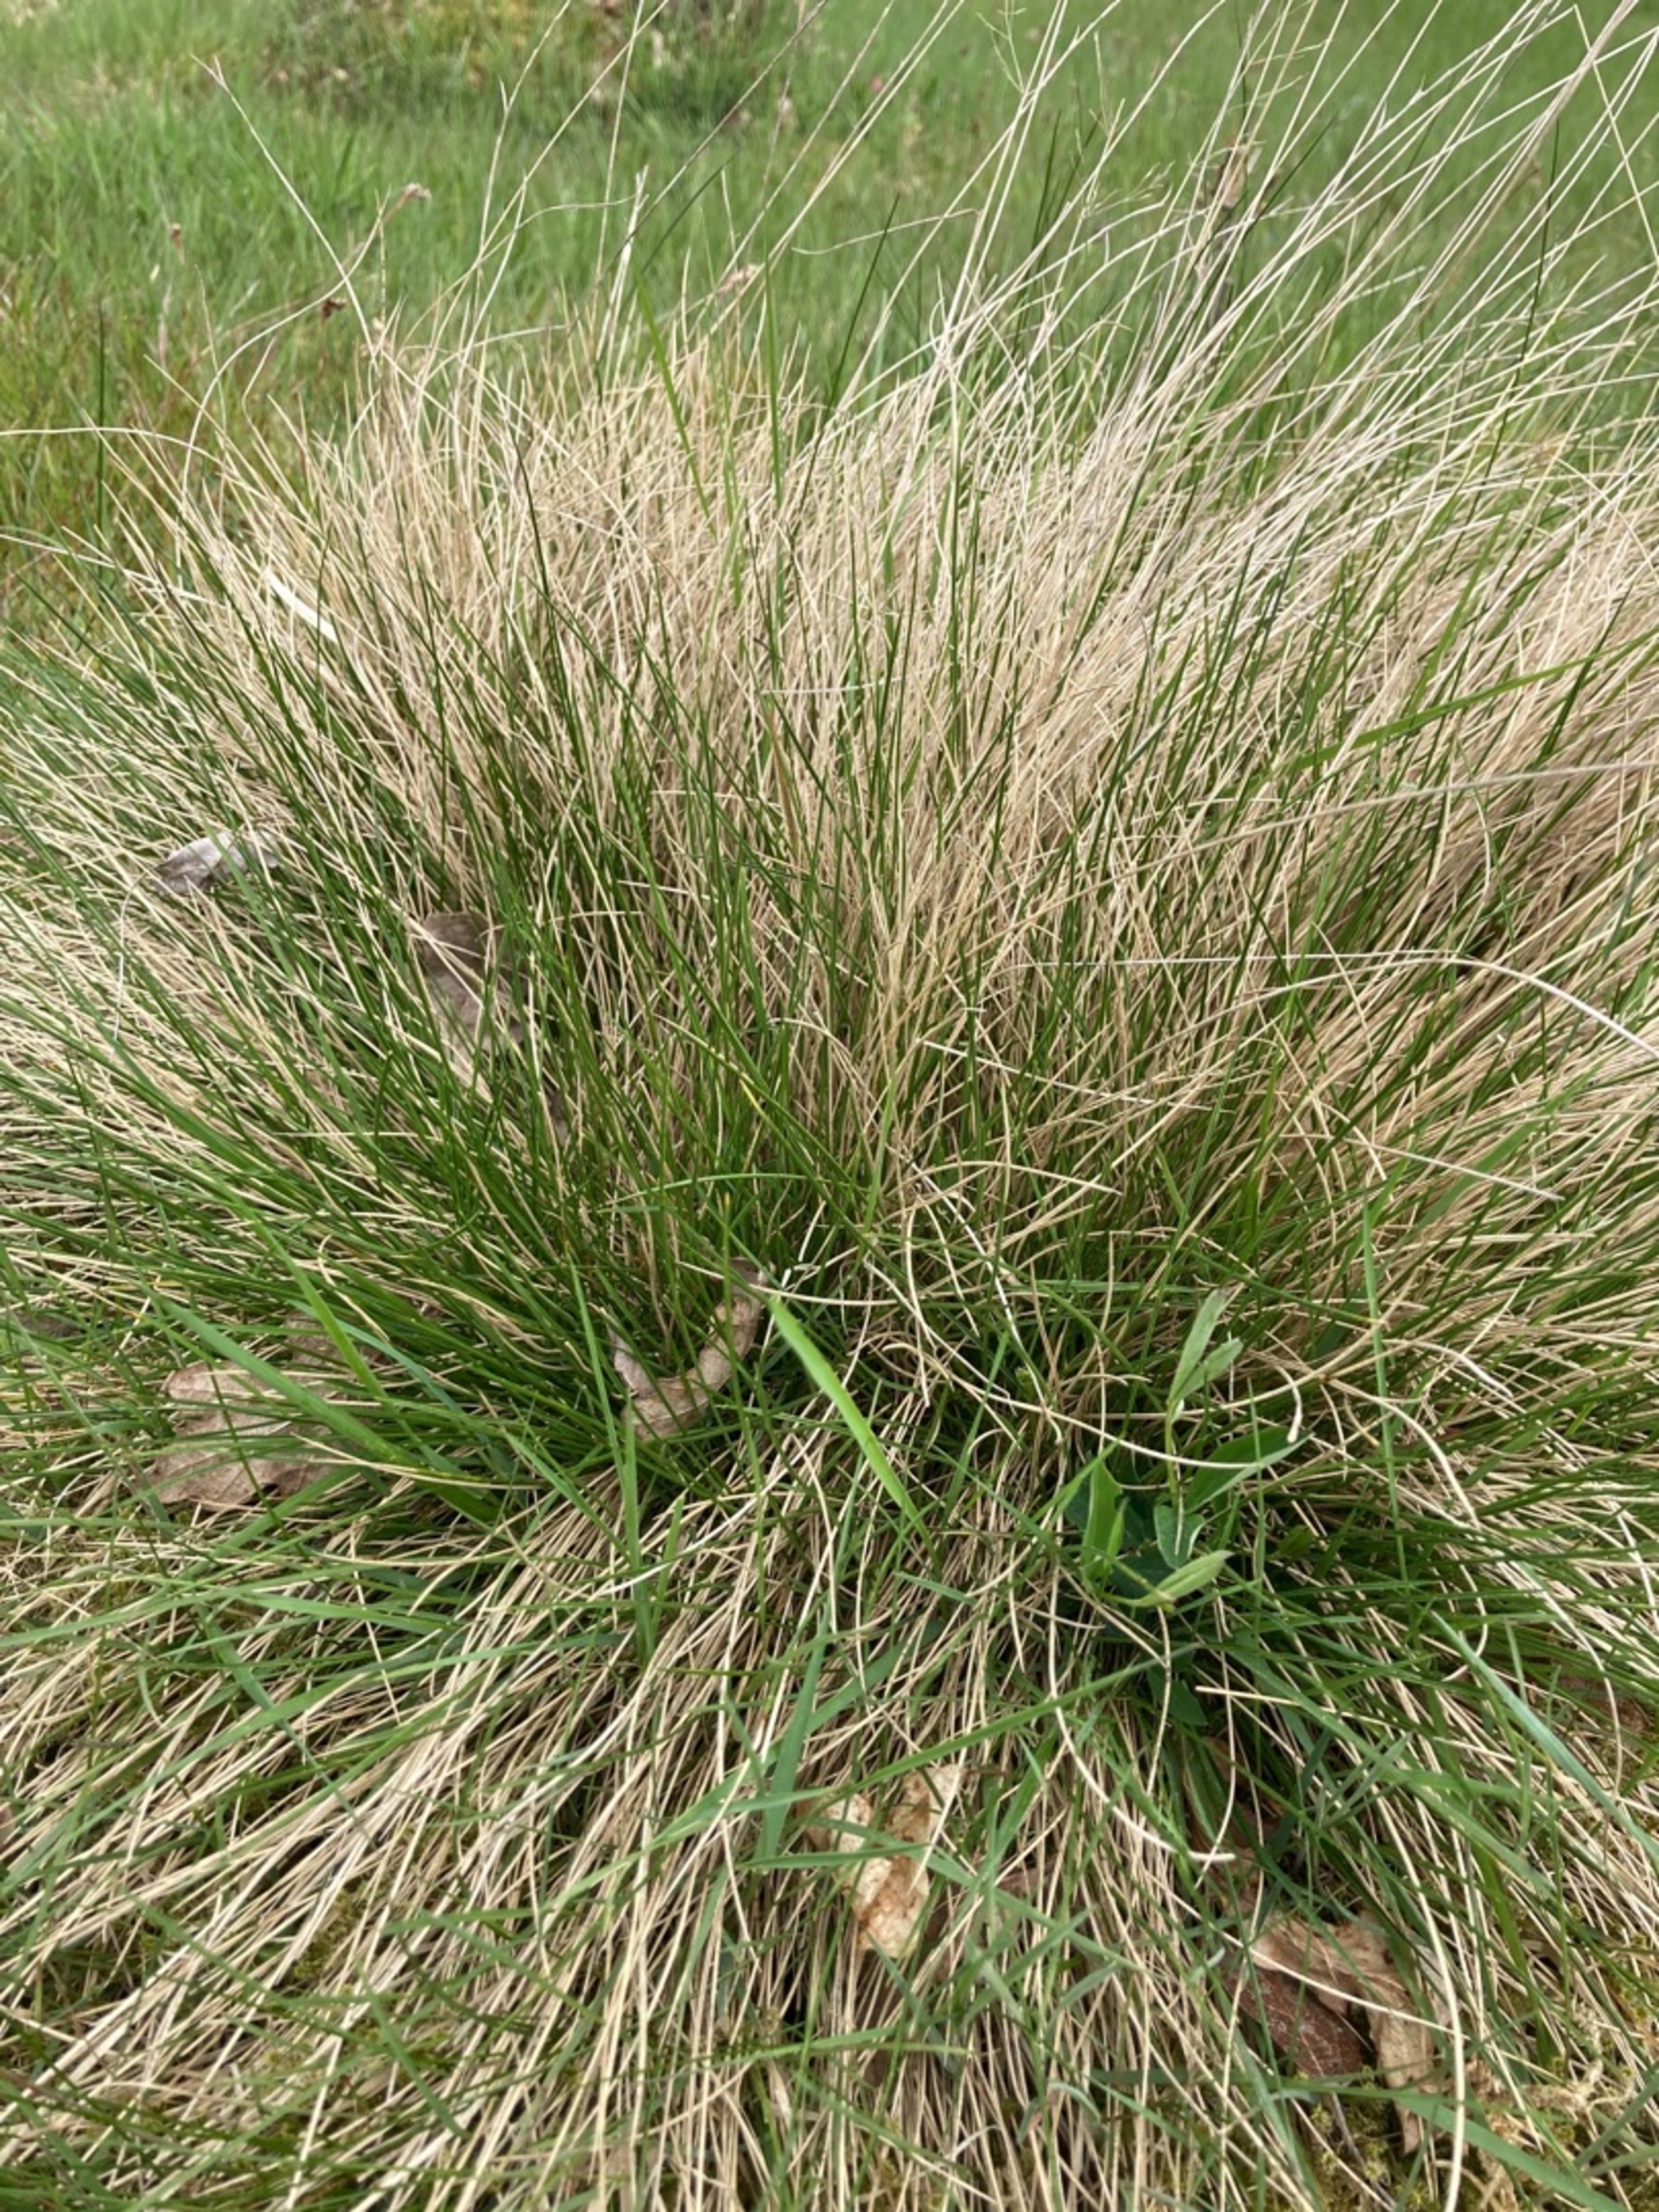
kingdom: Plantae
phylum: Tracheophyta
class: Liliopsida
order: Poales
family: Poaceae
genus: Nardus
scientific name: Nardus stricta
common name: Katteskæg
